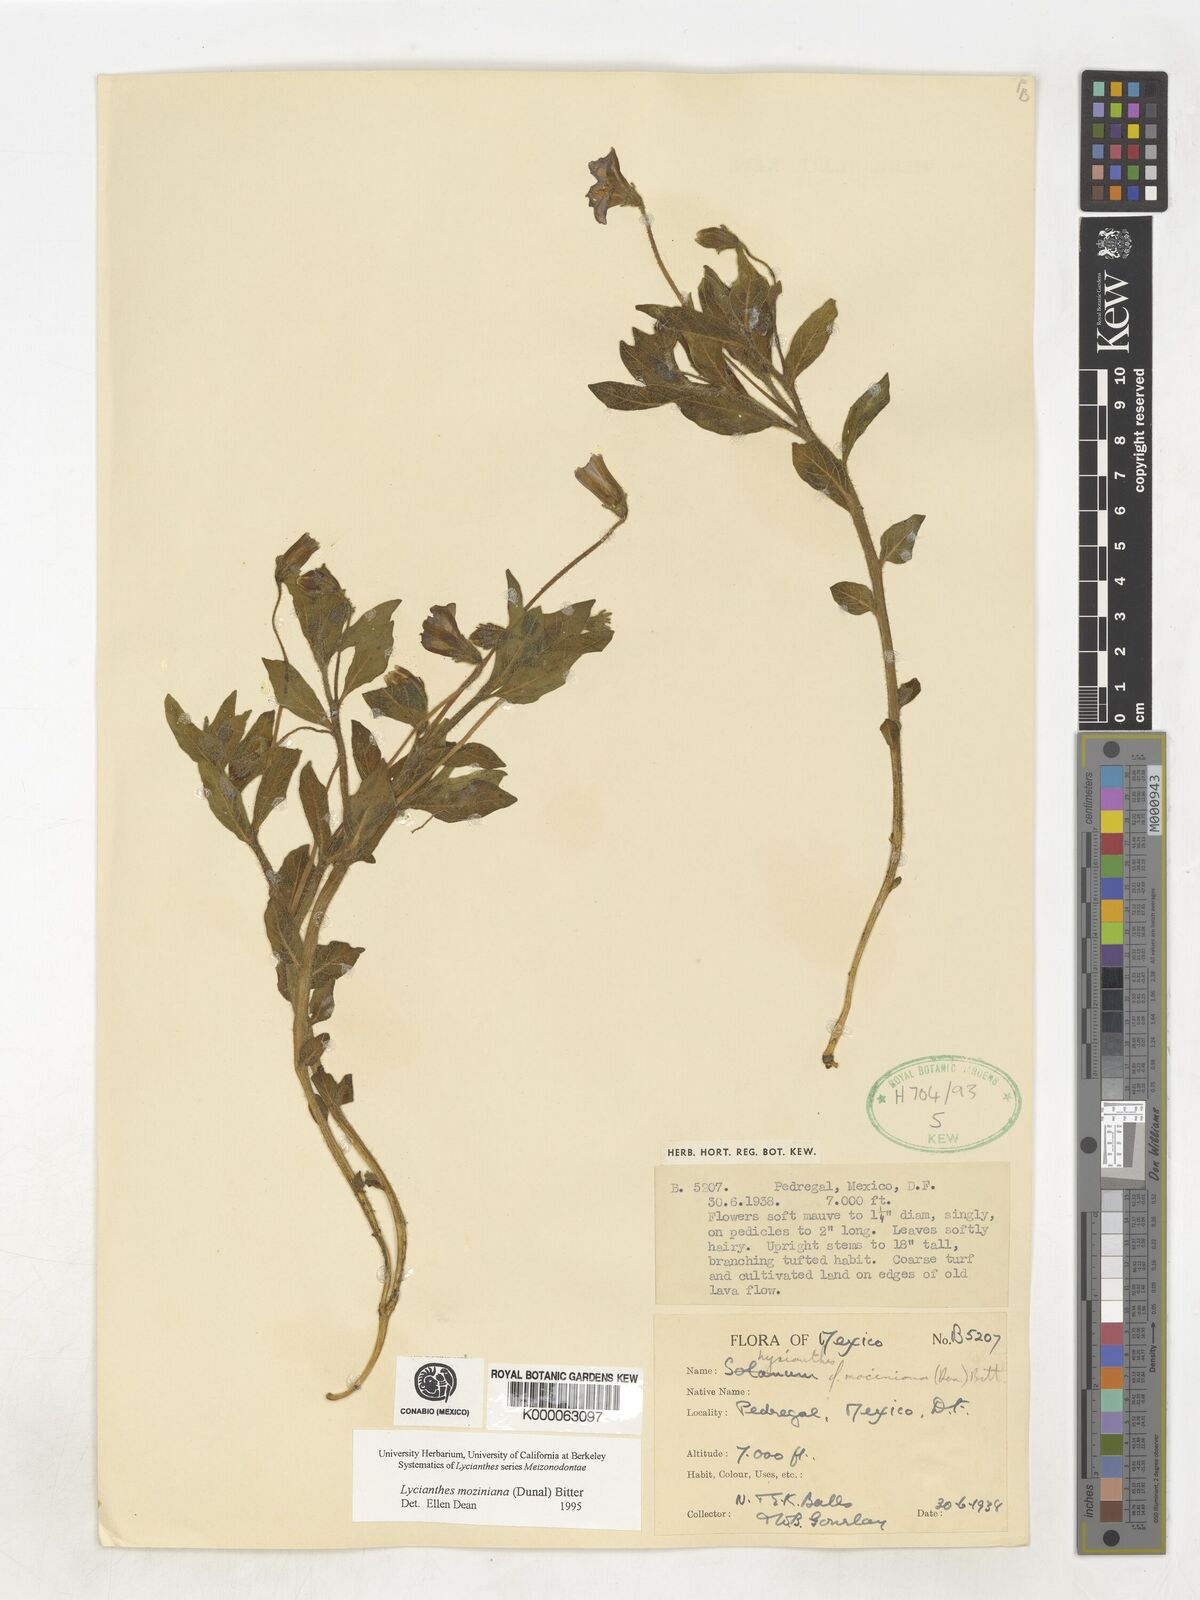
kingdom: Plantae
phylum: Tracheophyta
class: Magnoliopsida
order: Solanales
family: Solanaceae
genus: Lycianthes
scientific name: Lycianthes mozinoana
